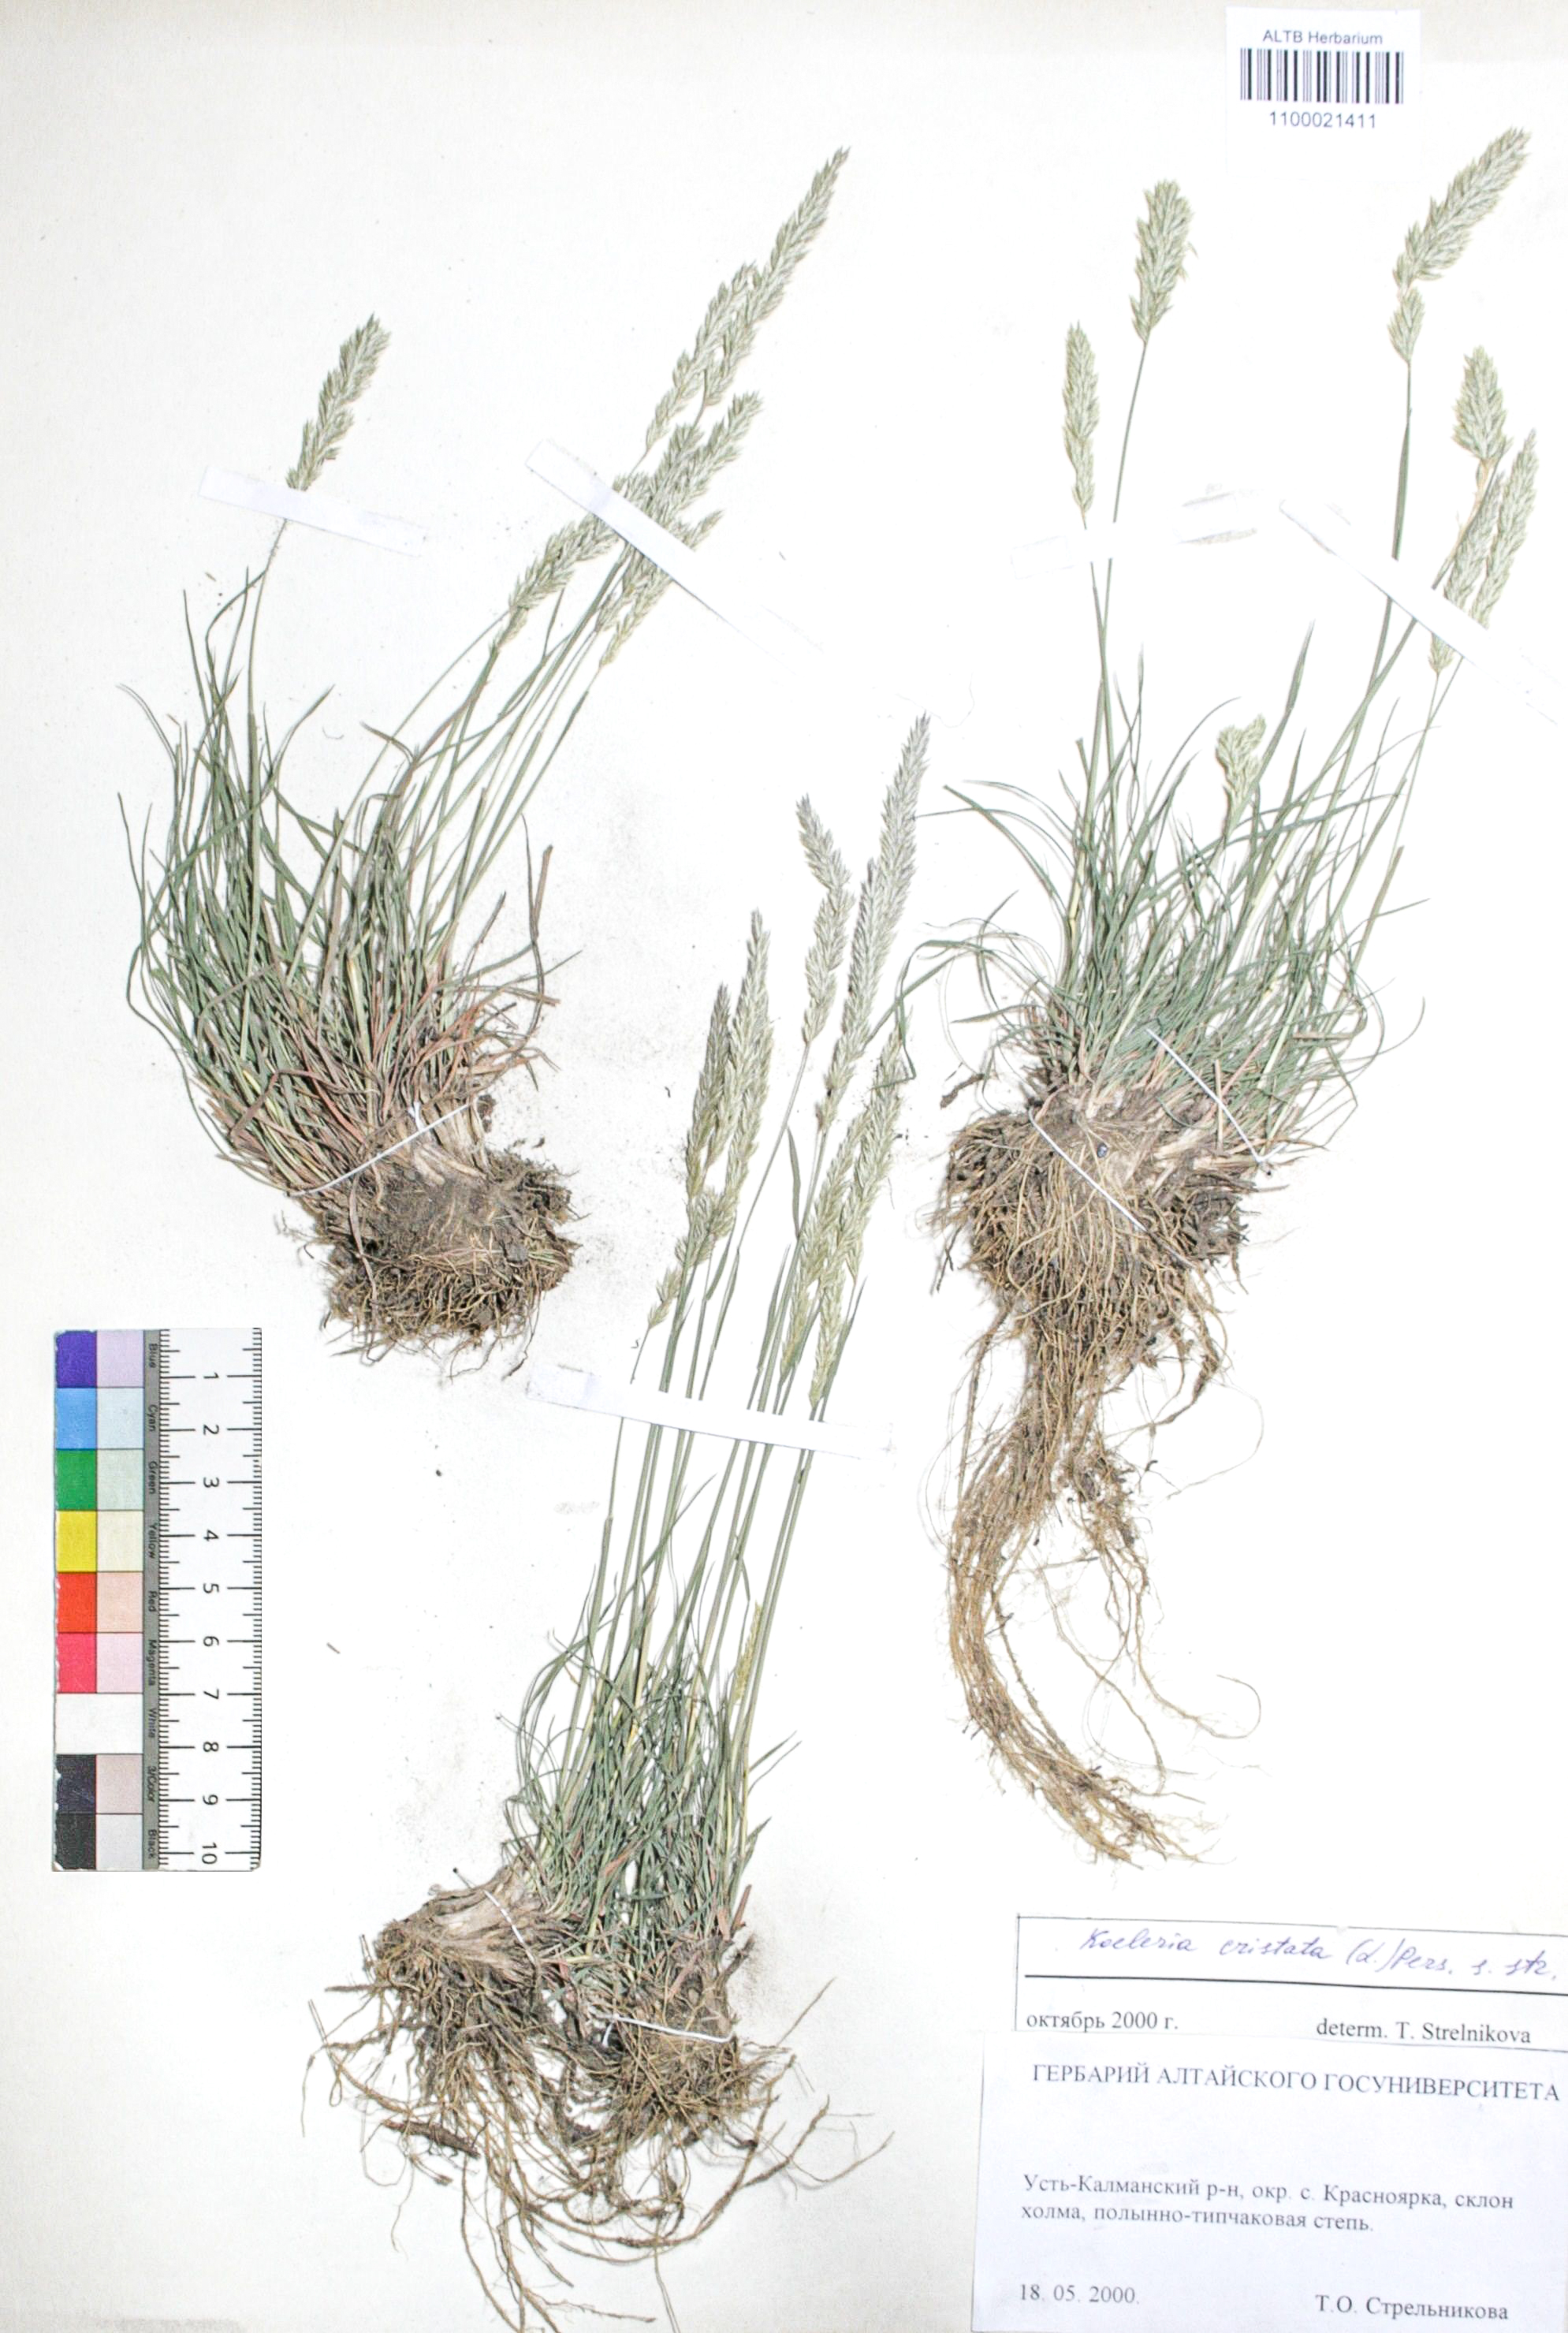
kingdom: Plantae
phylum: Tracheophyta
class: Liliopsida
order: Poales
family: Poaceae
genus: Koeleria
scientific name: Koeleria pyramidata
